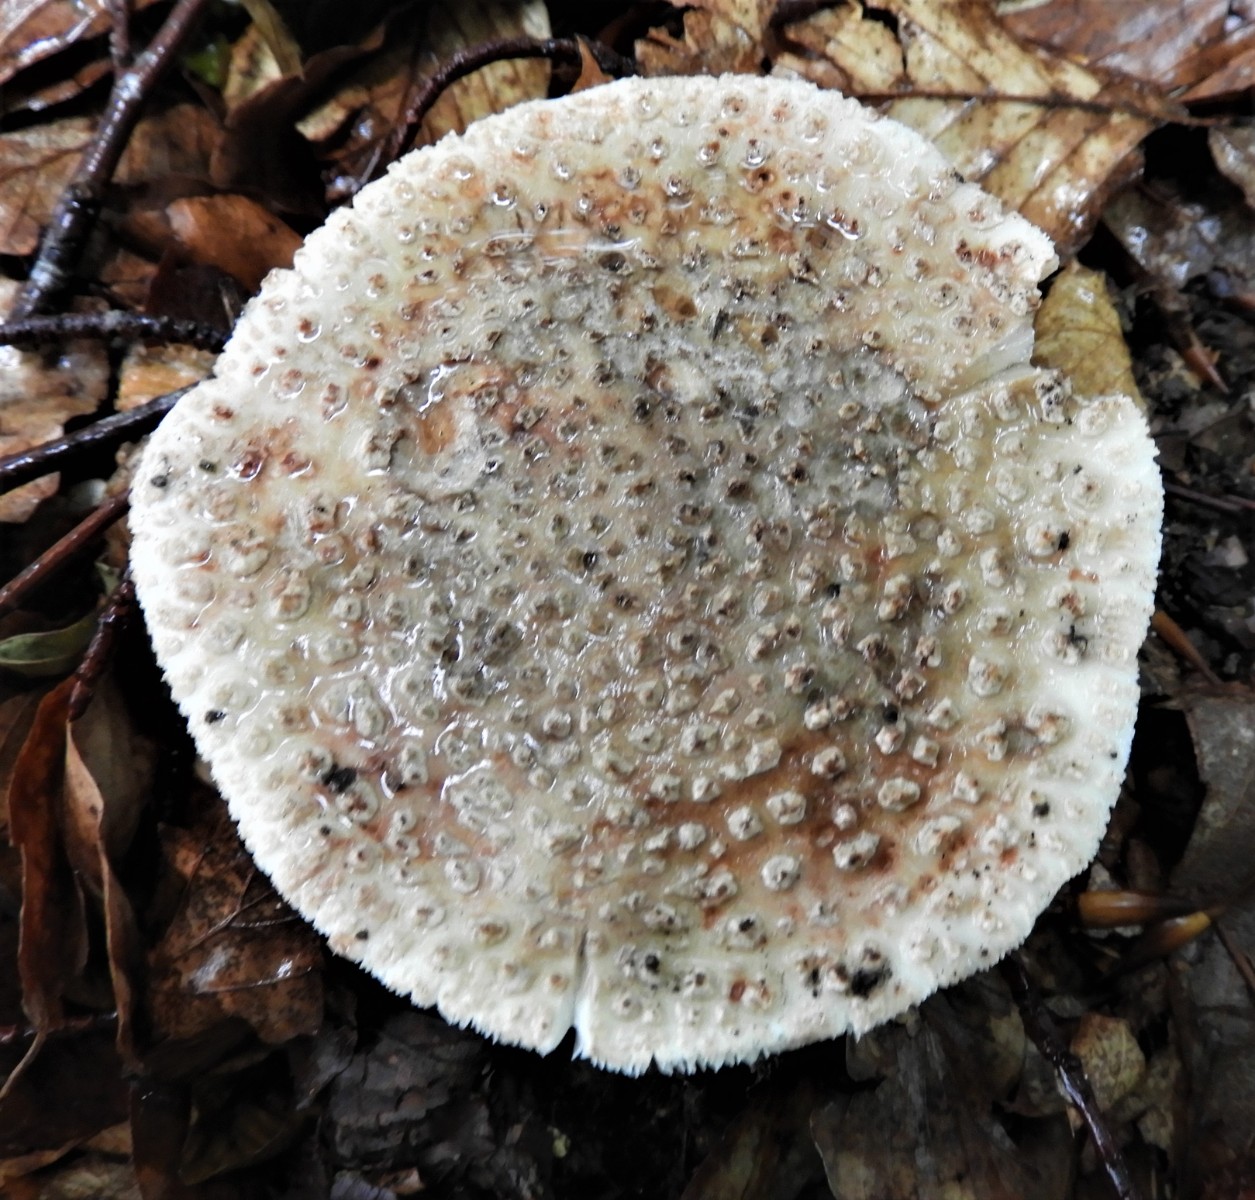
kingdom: Fungi
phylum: Basidiomycota
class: Agaricomycetes
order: Agaricales
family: Amanitaceae
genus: Amanita
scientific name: Amanita rubescens
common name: rødmende fluesvamp
